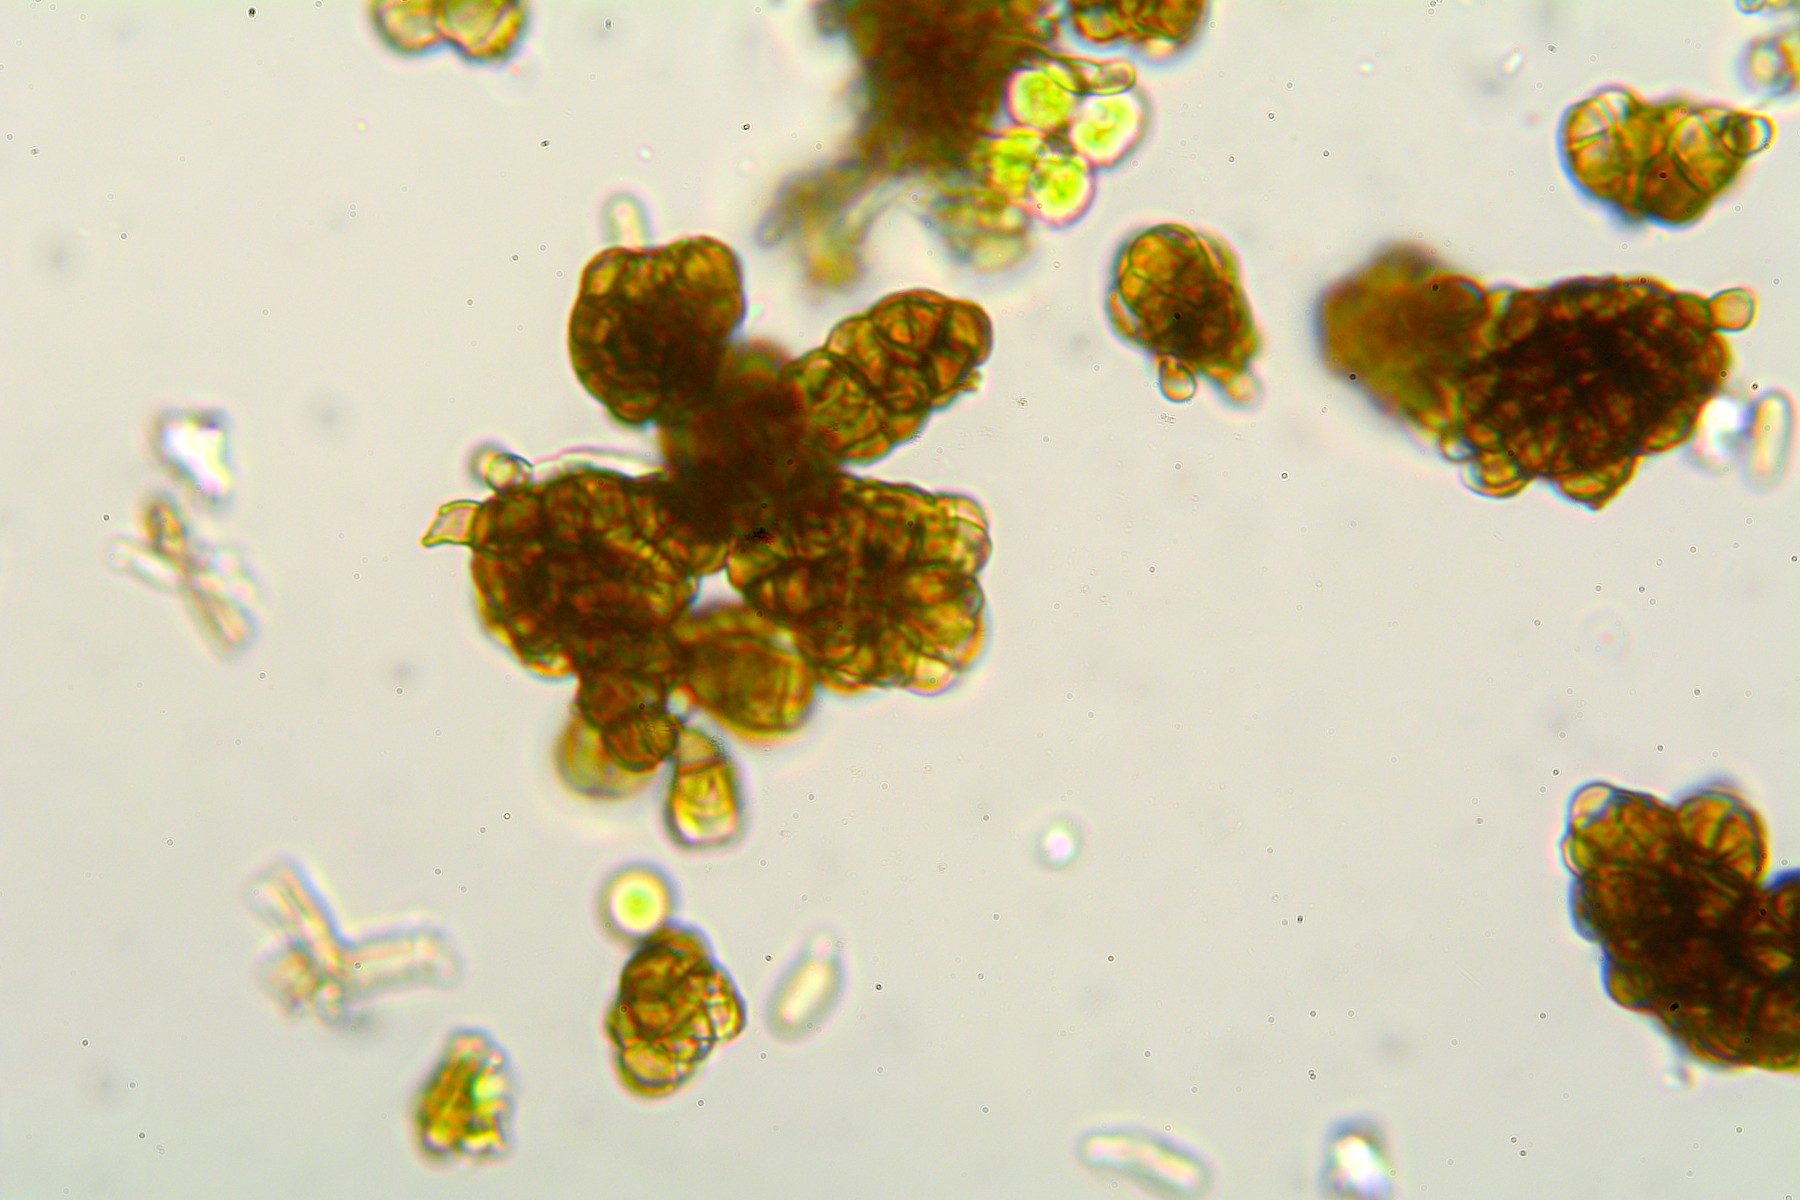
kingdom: Fungi
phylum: Ascomycota
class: Dothideomycetes
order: Dothideales
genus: Monodictys
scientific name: Monodictys cellulosa
